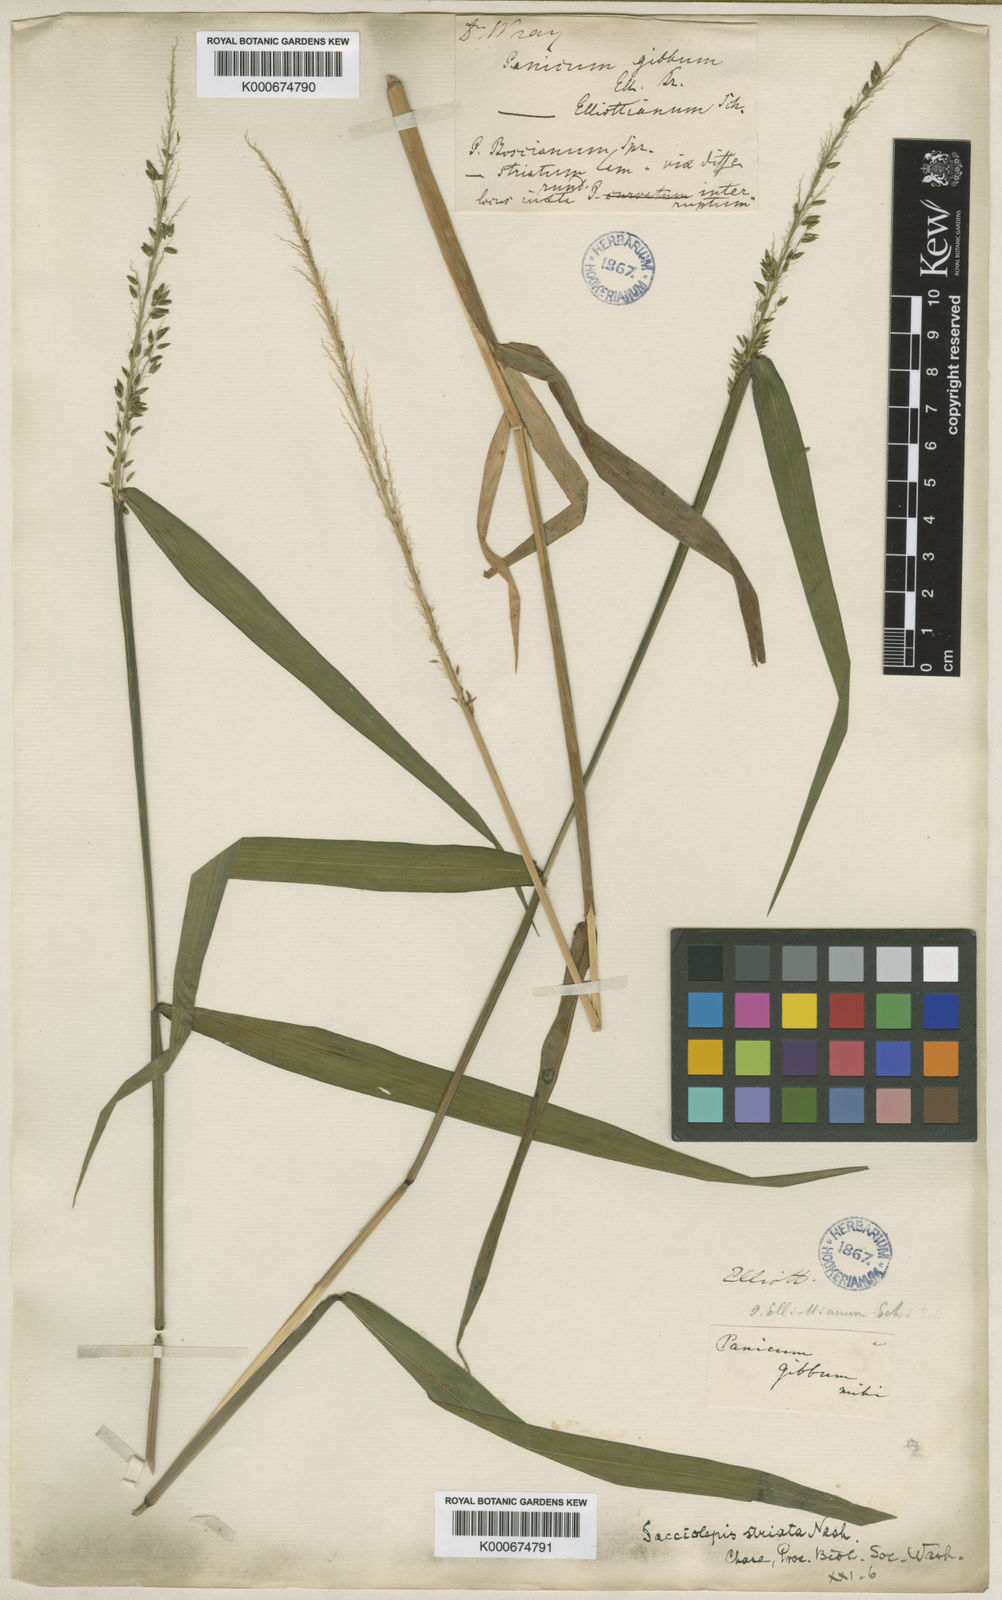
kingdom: Plantae
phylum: Tracheophyta
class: Liliopsida
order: Poales
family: Poaceae
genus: Sacciolepis
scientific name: Sacciolepis striata
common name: American cupscale
